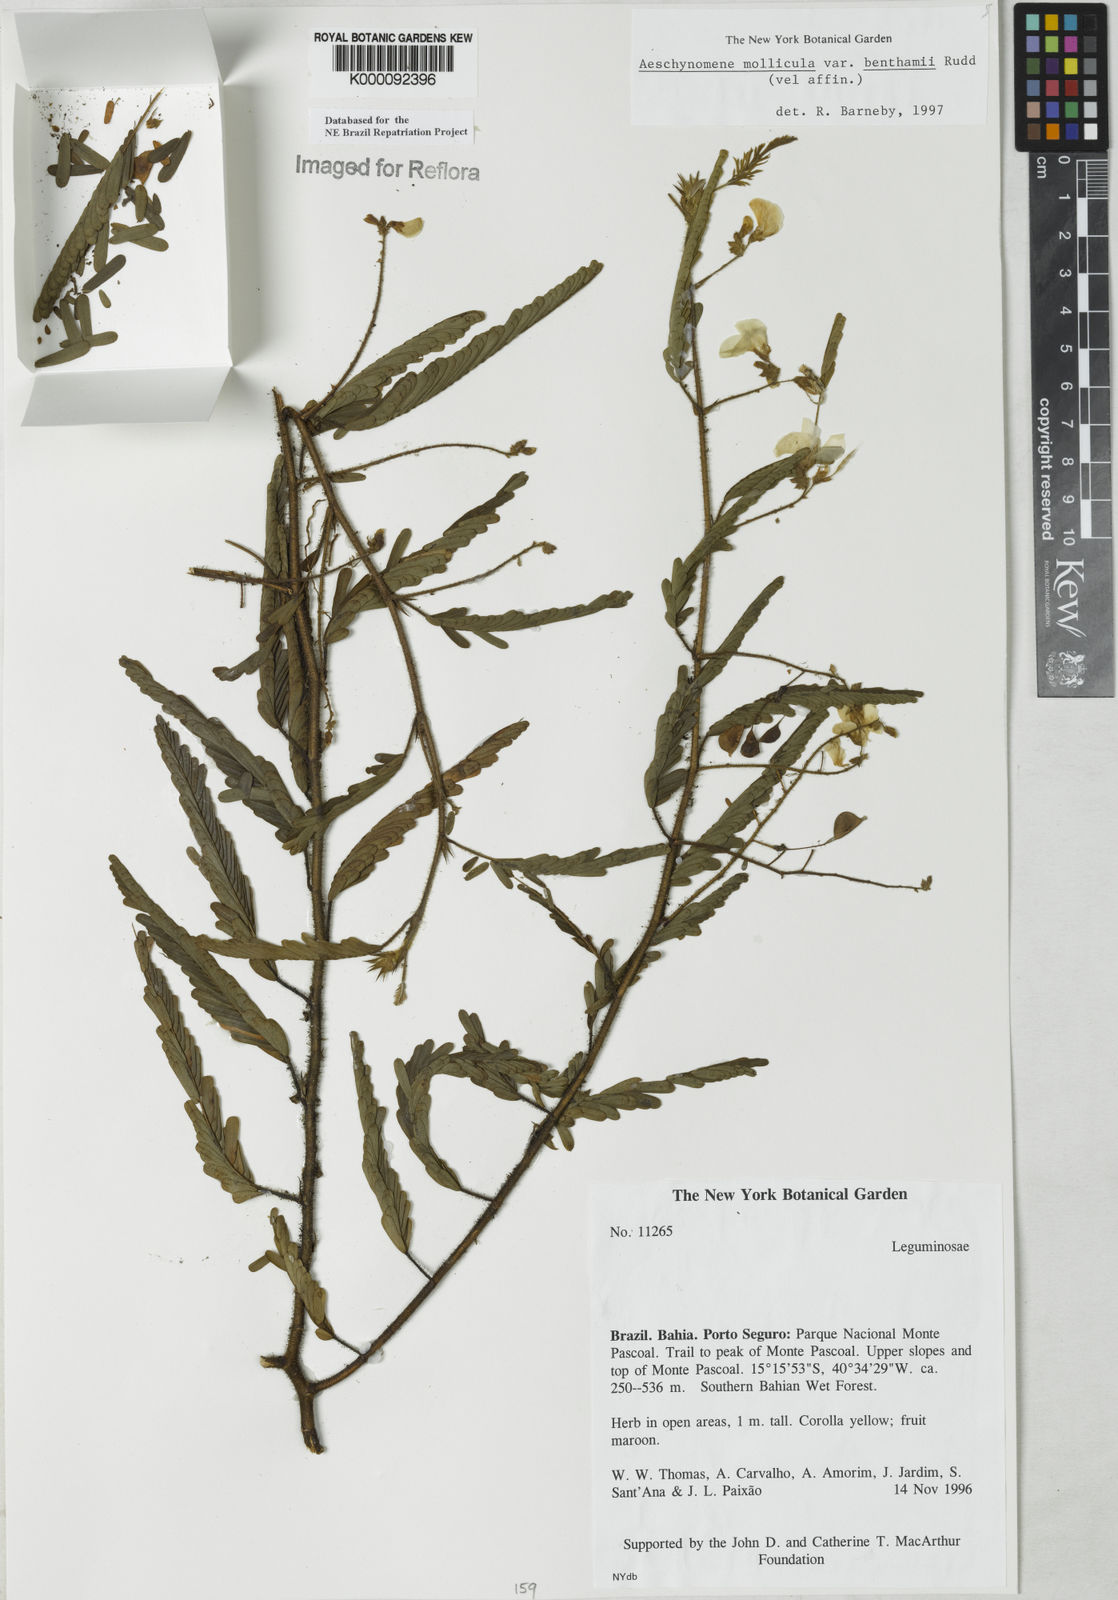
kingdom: Plantae
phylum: Tracheophyta
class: Magnoliopsida
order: Fabales
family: Fabaceae
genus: Aeschynomene
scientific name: Aeschynomene
